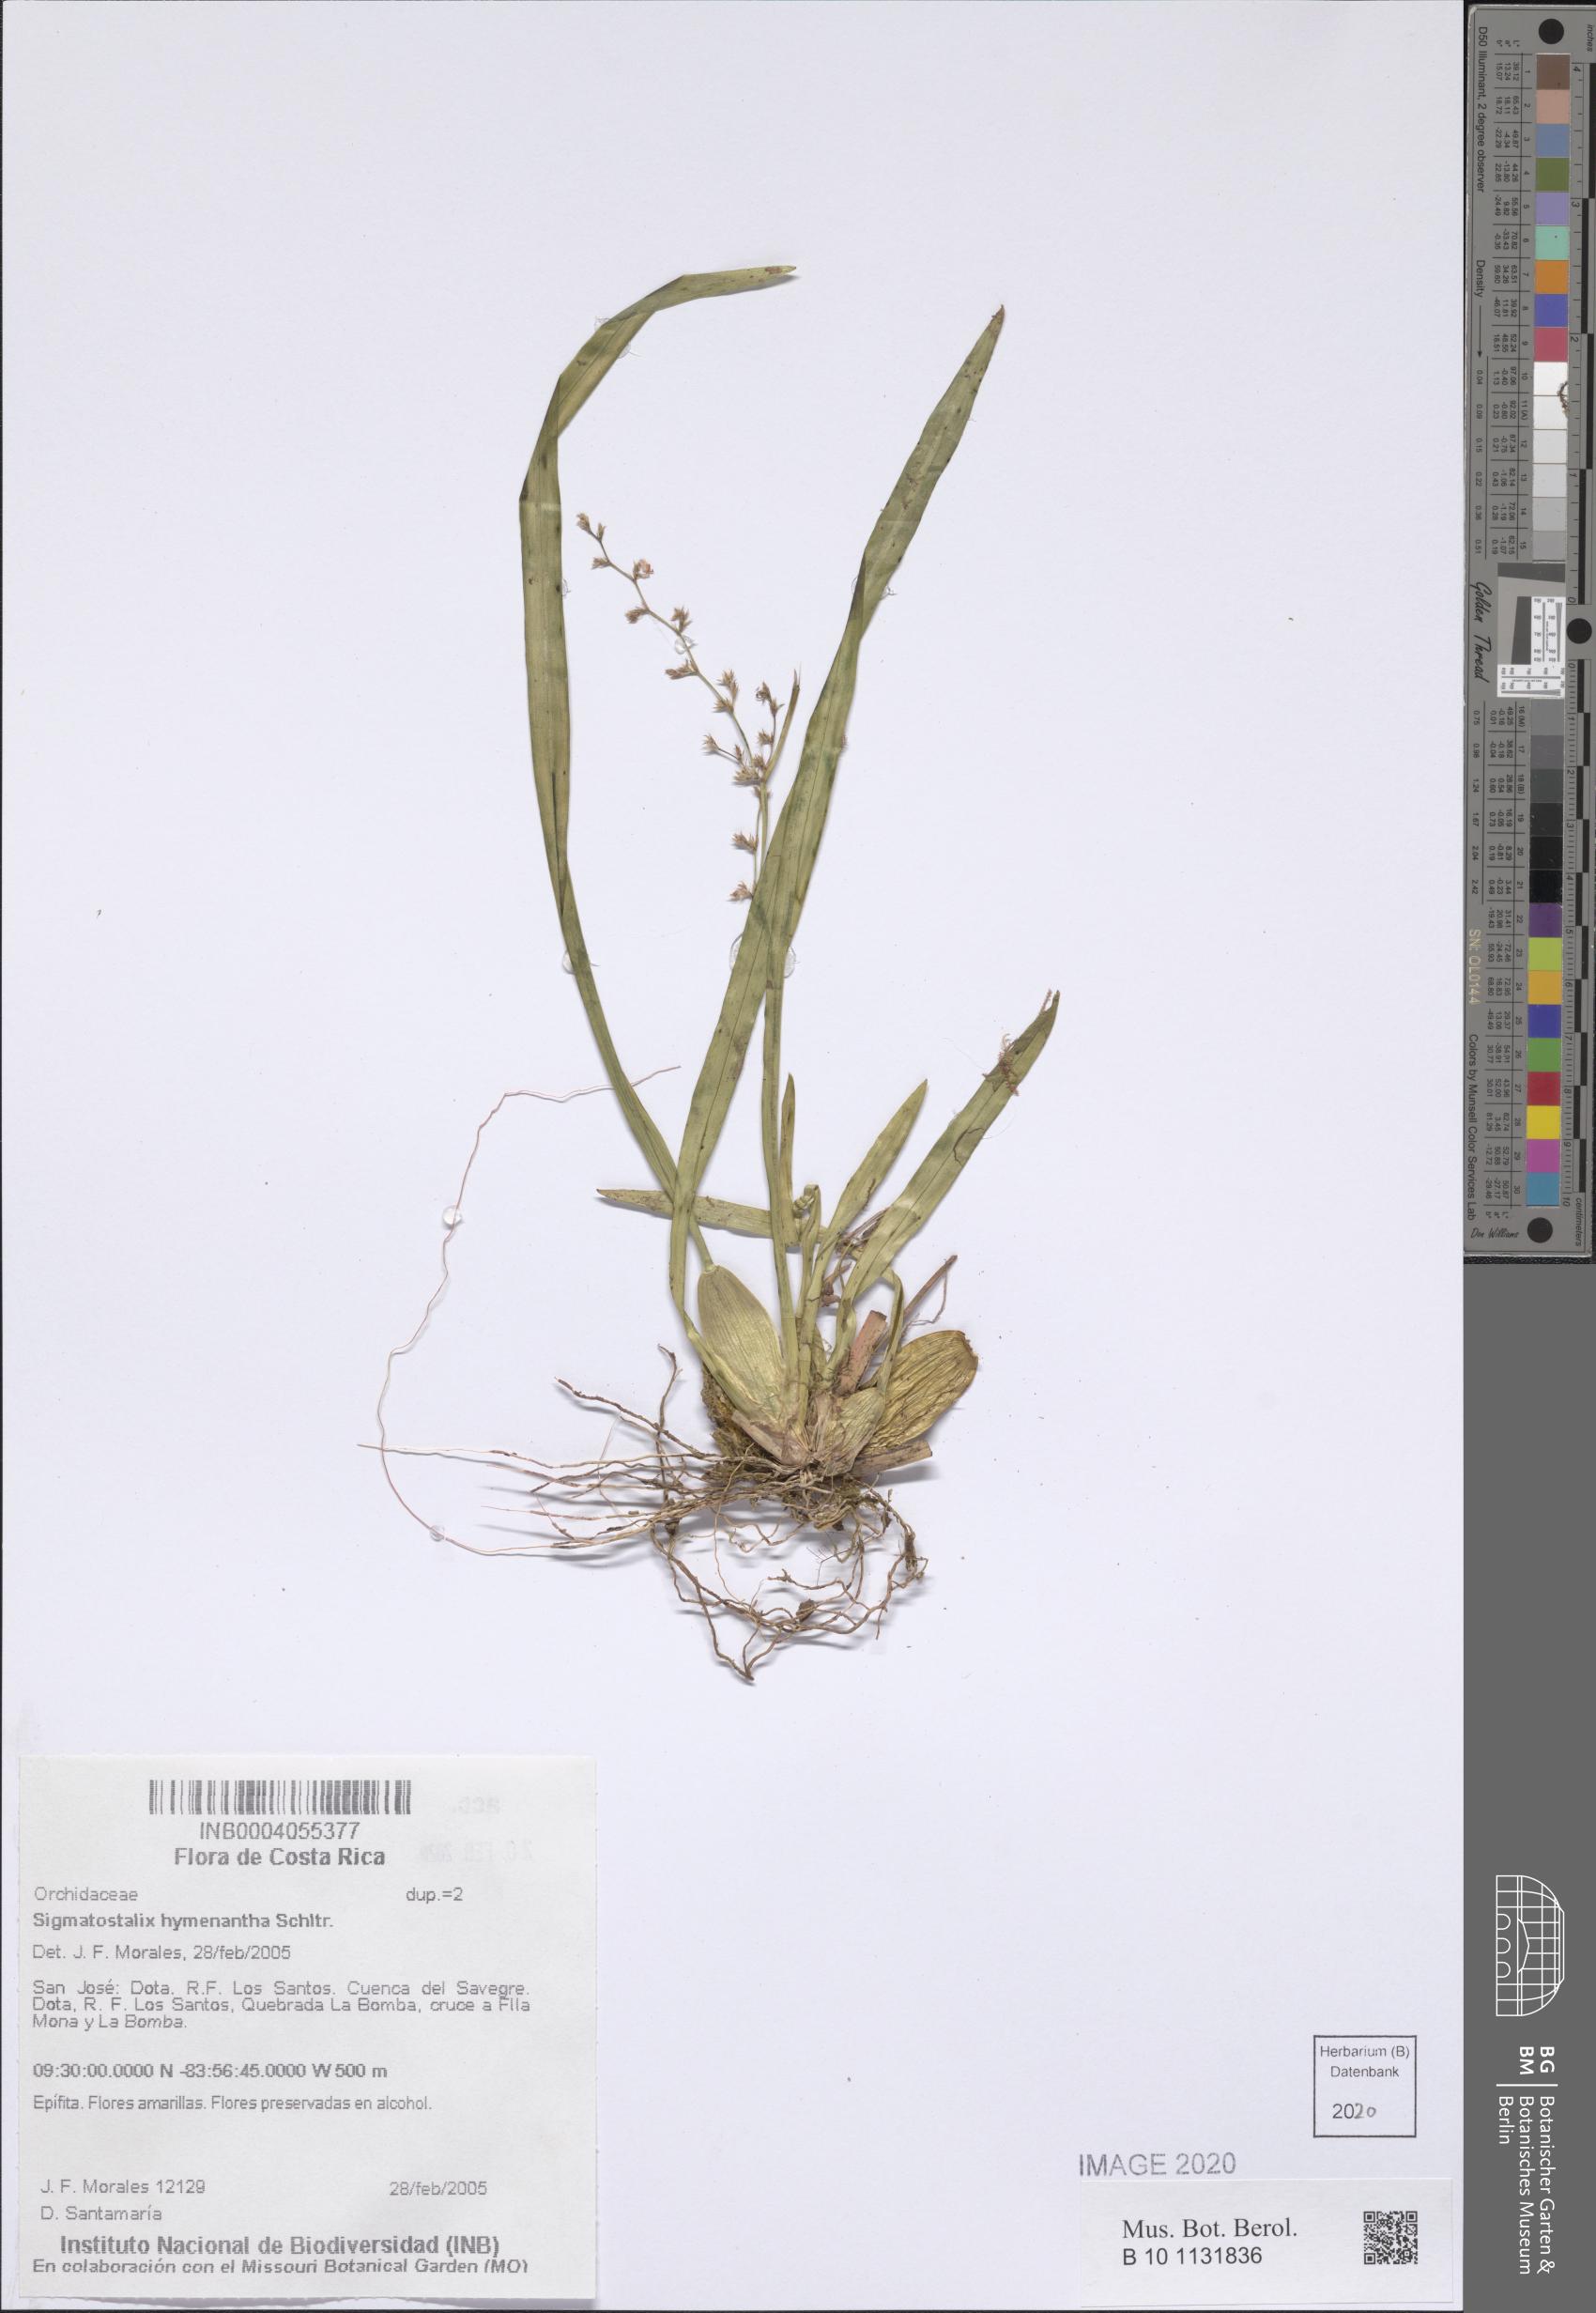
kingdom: Plantae
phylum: Tracheophyta
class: Liliopsida
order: Asparagales
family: Orchidaceae
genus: Oncidium
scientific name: Oncidium hymenanthum
